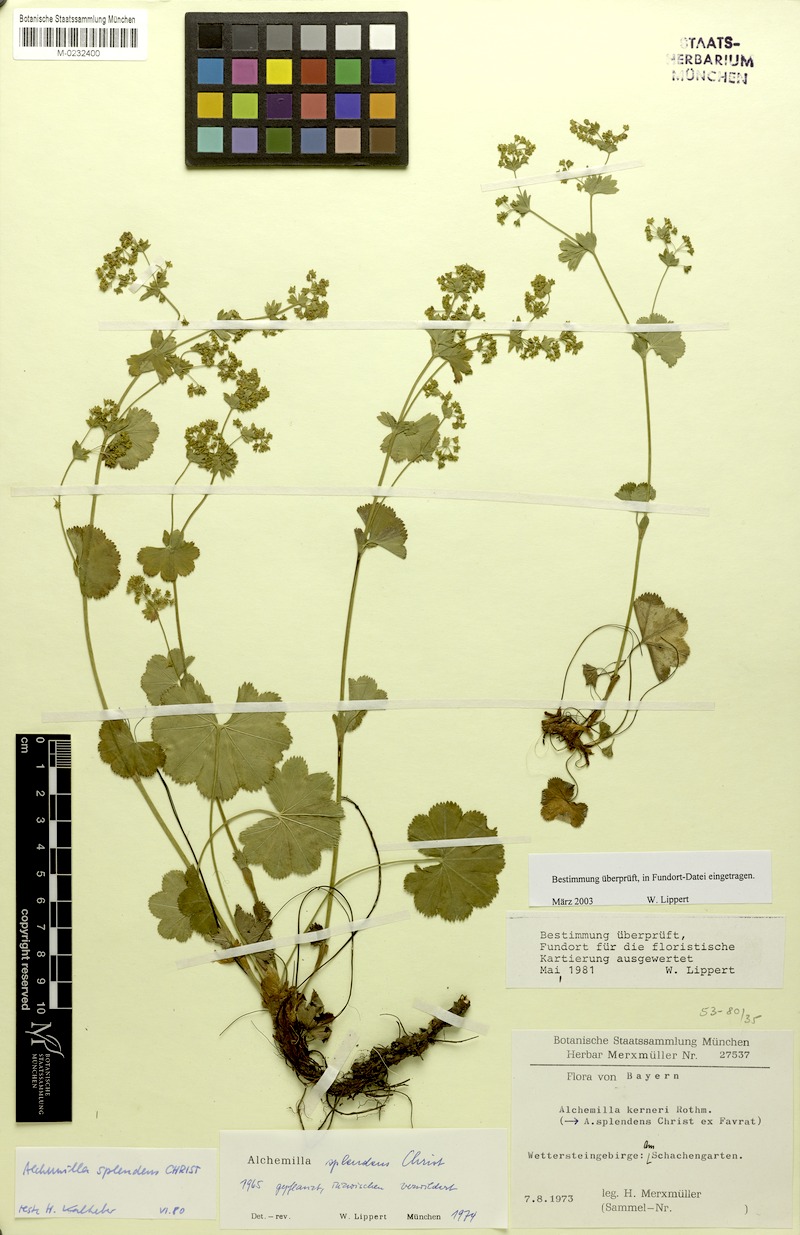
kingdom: Plantae
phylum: Tracheophyta
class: Magnoliopsida
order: Rosales
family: Rosaceae
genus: Alchemilla
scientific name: Alchemilla splendens
